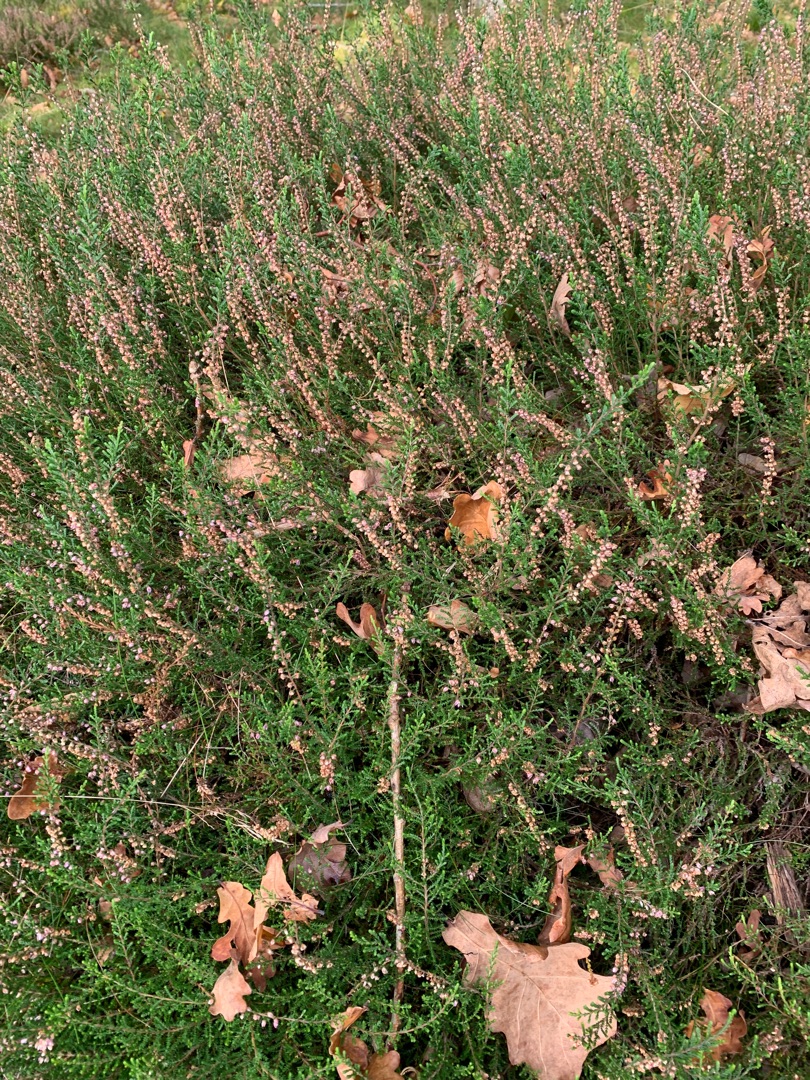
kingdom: Plantae
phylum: Tracheophyta
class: Magnoliopsida
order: Ericales
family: Ericaceae
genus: Calluna
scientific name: Calluna vulgaris
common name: Hedelyng
